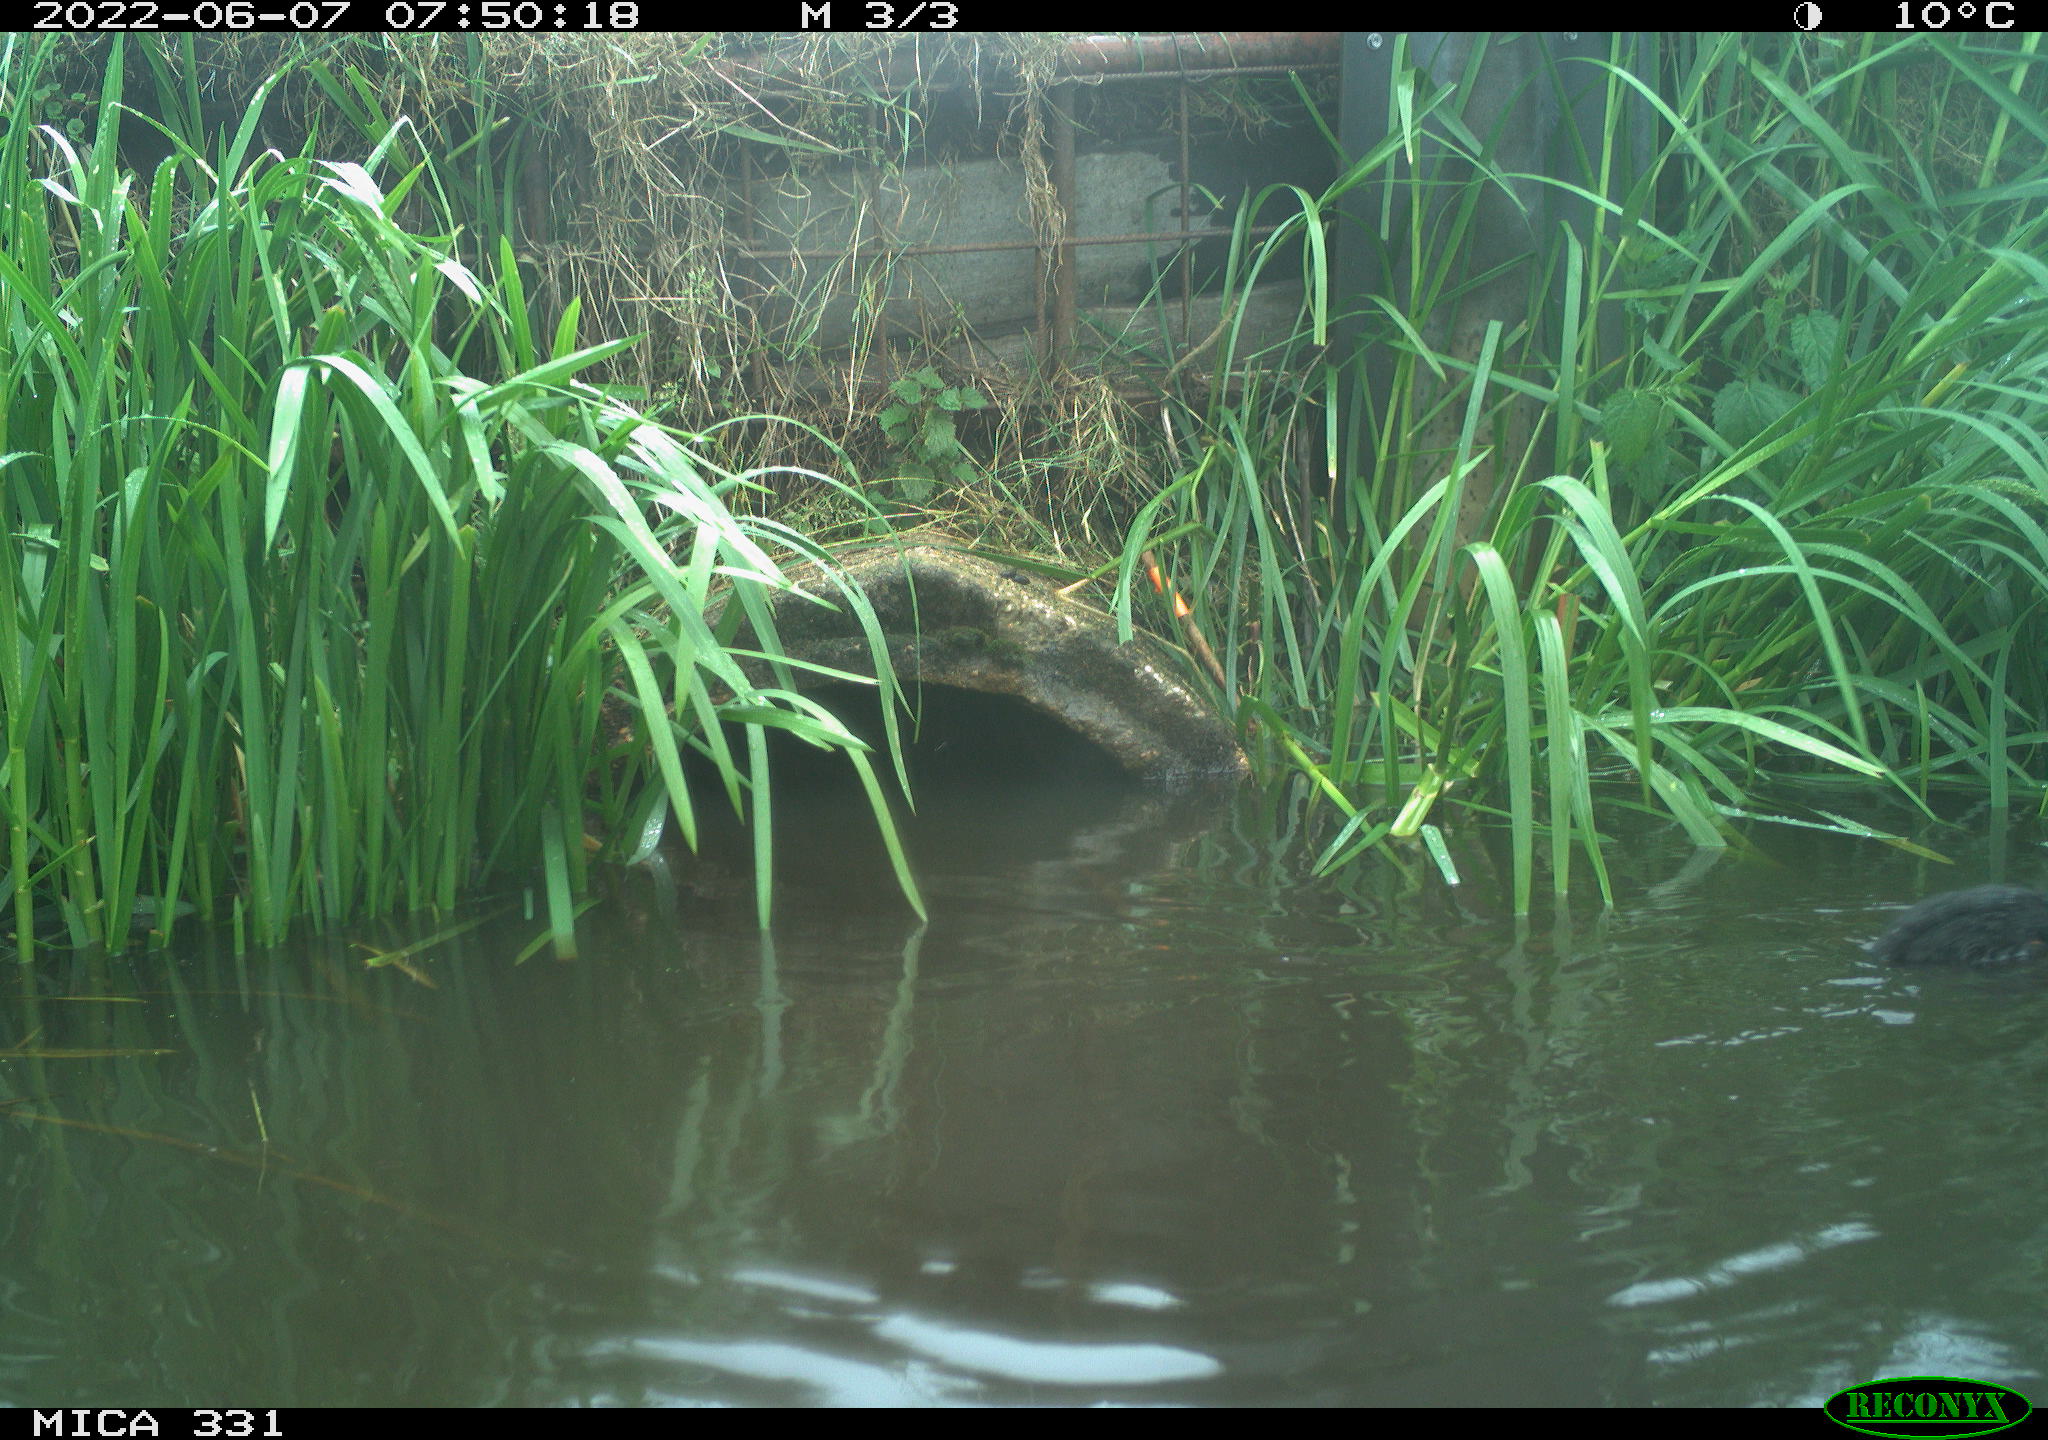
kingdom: Animalia
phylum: Chordata
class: Aves
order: Gruiformes
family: Rallidae
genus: Gallinula
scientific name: Gallinula chloropus
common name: Common moorhen
